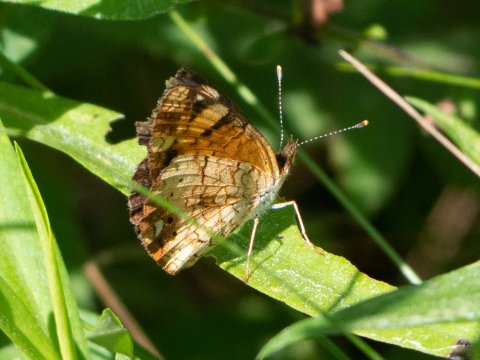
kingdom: Animalia
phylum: Arthropoda
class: Insecta
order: Lepidoptera
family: Nymphalidae
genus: Phyciodes
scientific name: Phyciodes
